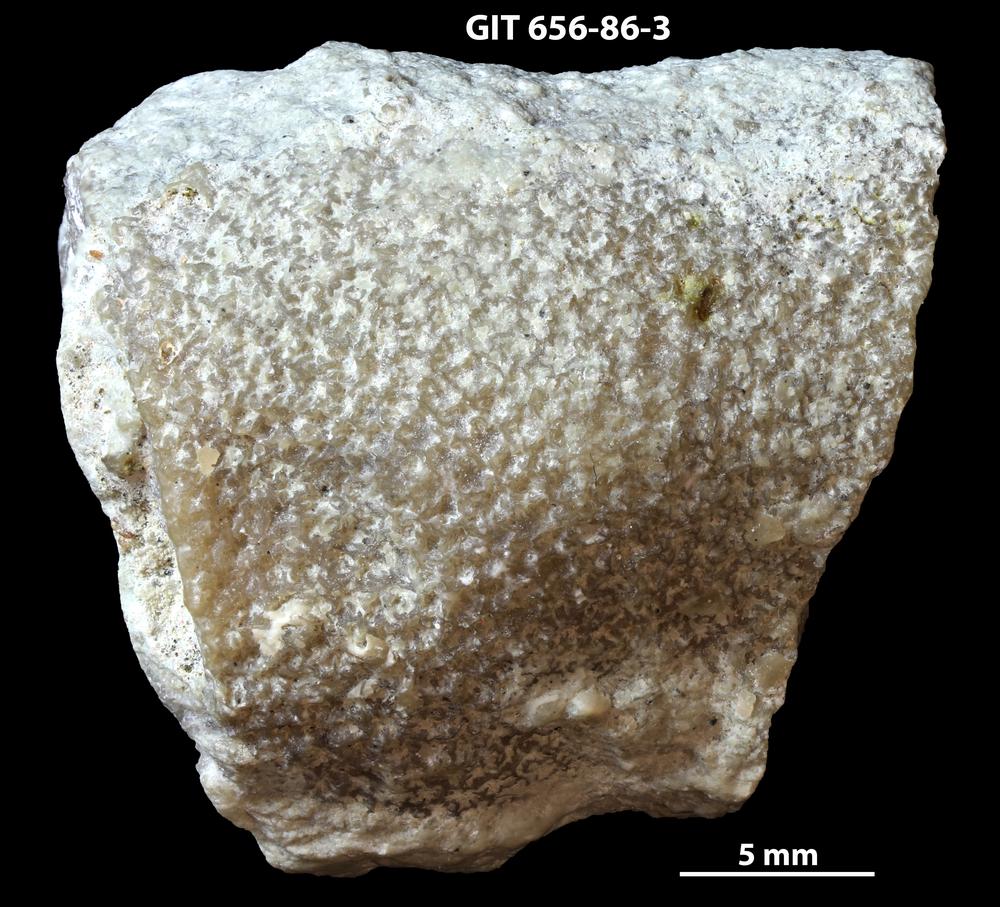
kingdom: Animalia
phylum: Cnidaria
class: Anthozoa
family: Theciidae
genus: Thecia
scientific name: Thecia
